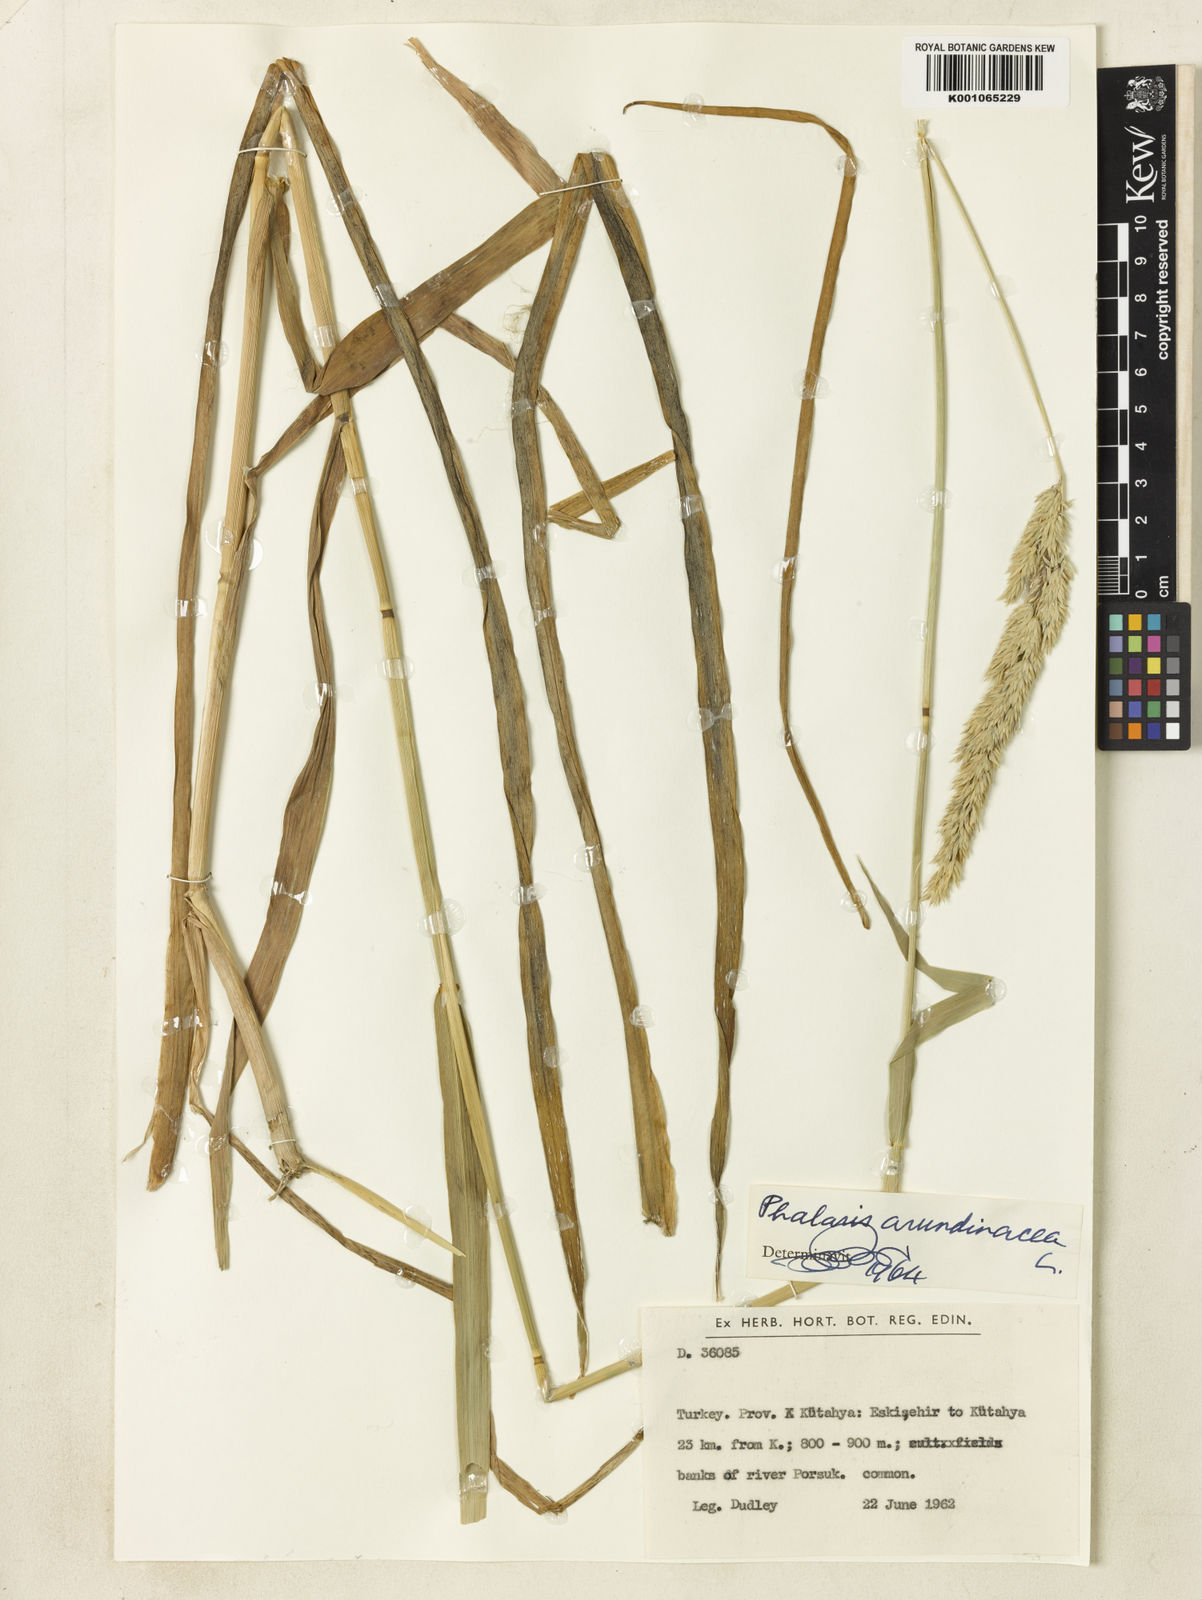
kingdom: Plantae
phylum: Tracheophyta
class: Liliopsida
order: Poales
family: Poaceae
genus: Phalaris
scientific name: Phalaris arundinacea
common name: Reed canary-grass
